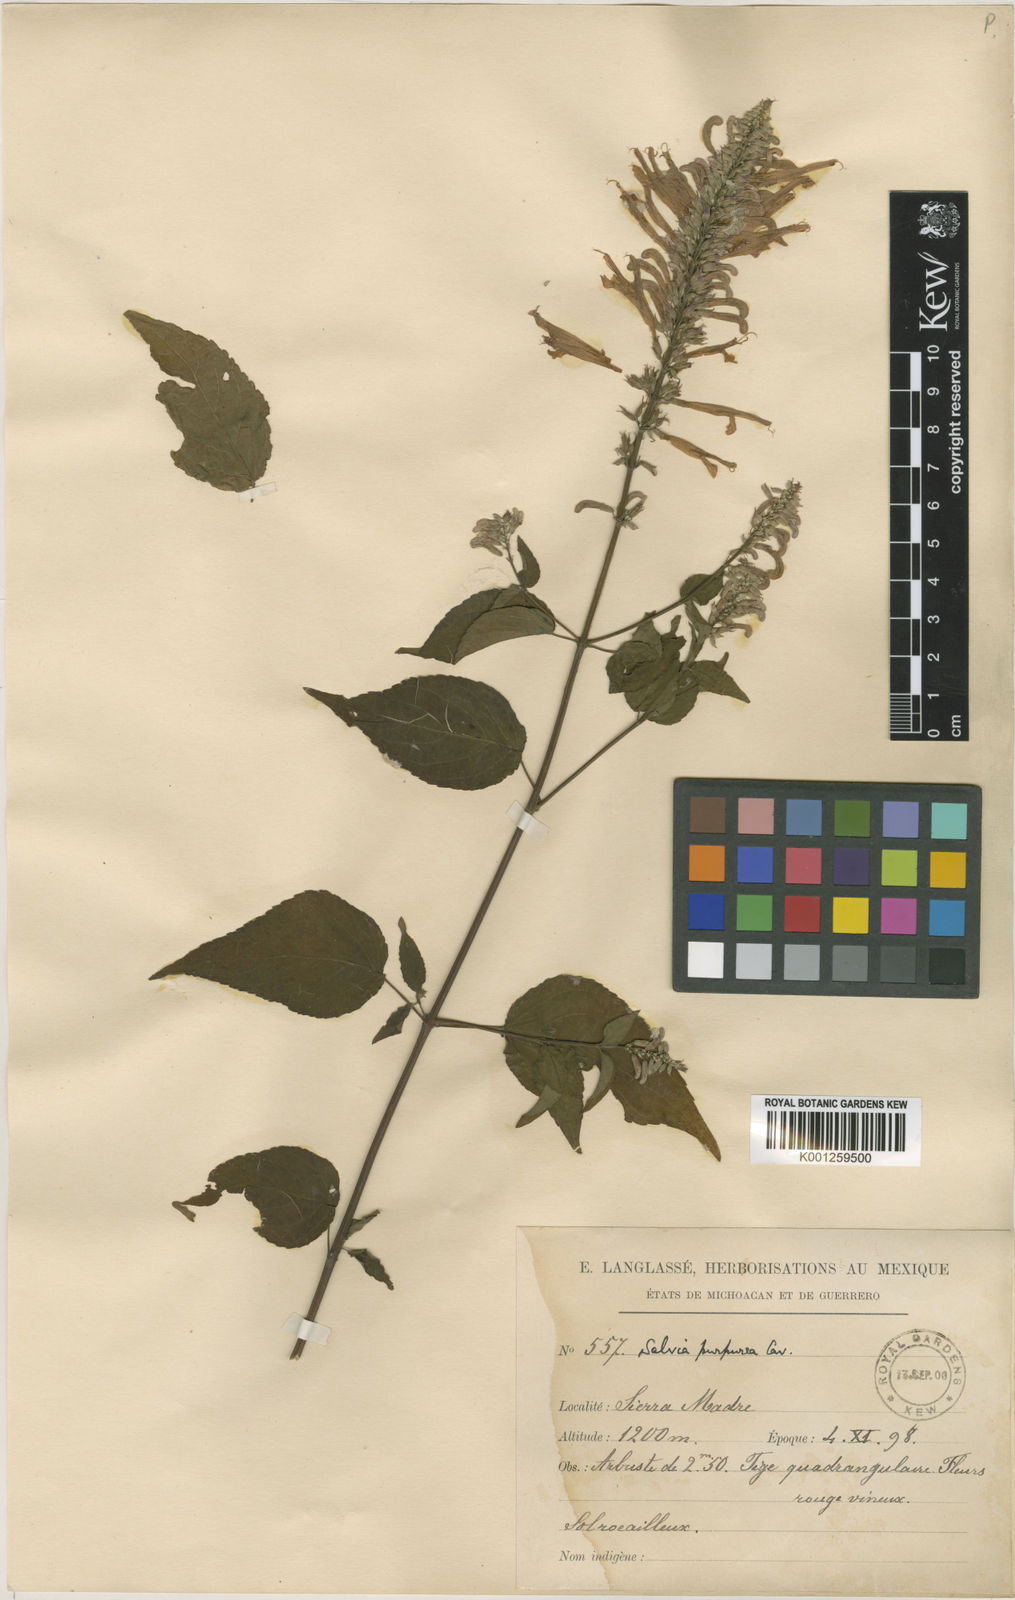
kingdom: Plantae
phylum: Tracheophyta
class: Magnoliopsida
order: Lamiales
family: Lamiaceae
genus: Salvia
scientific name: Salvia purpurea
